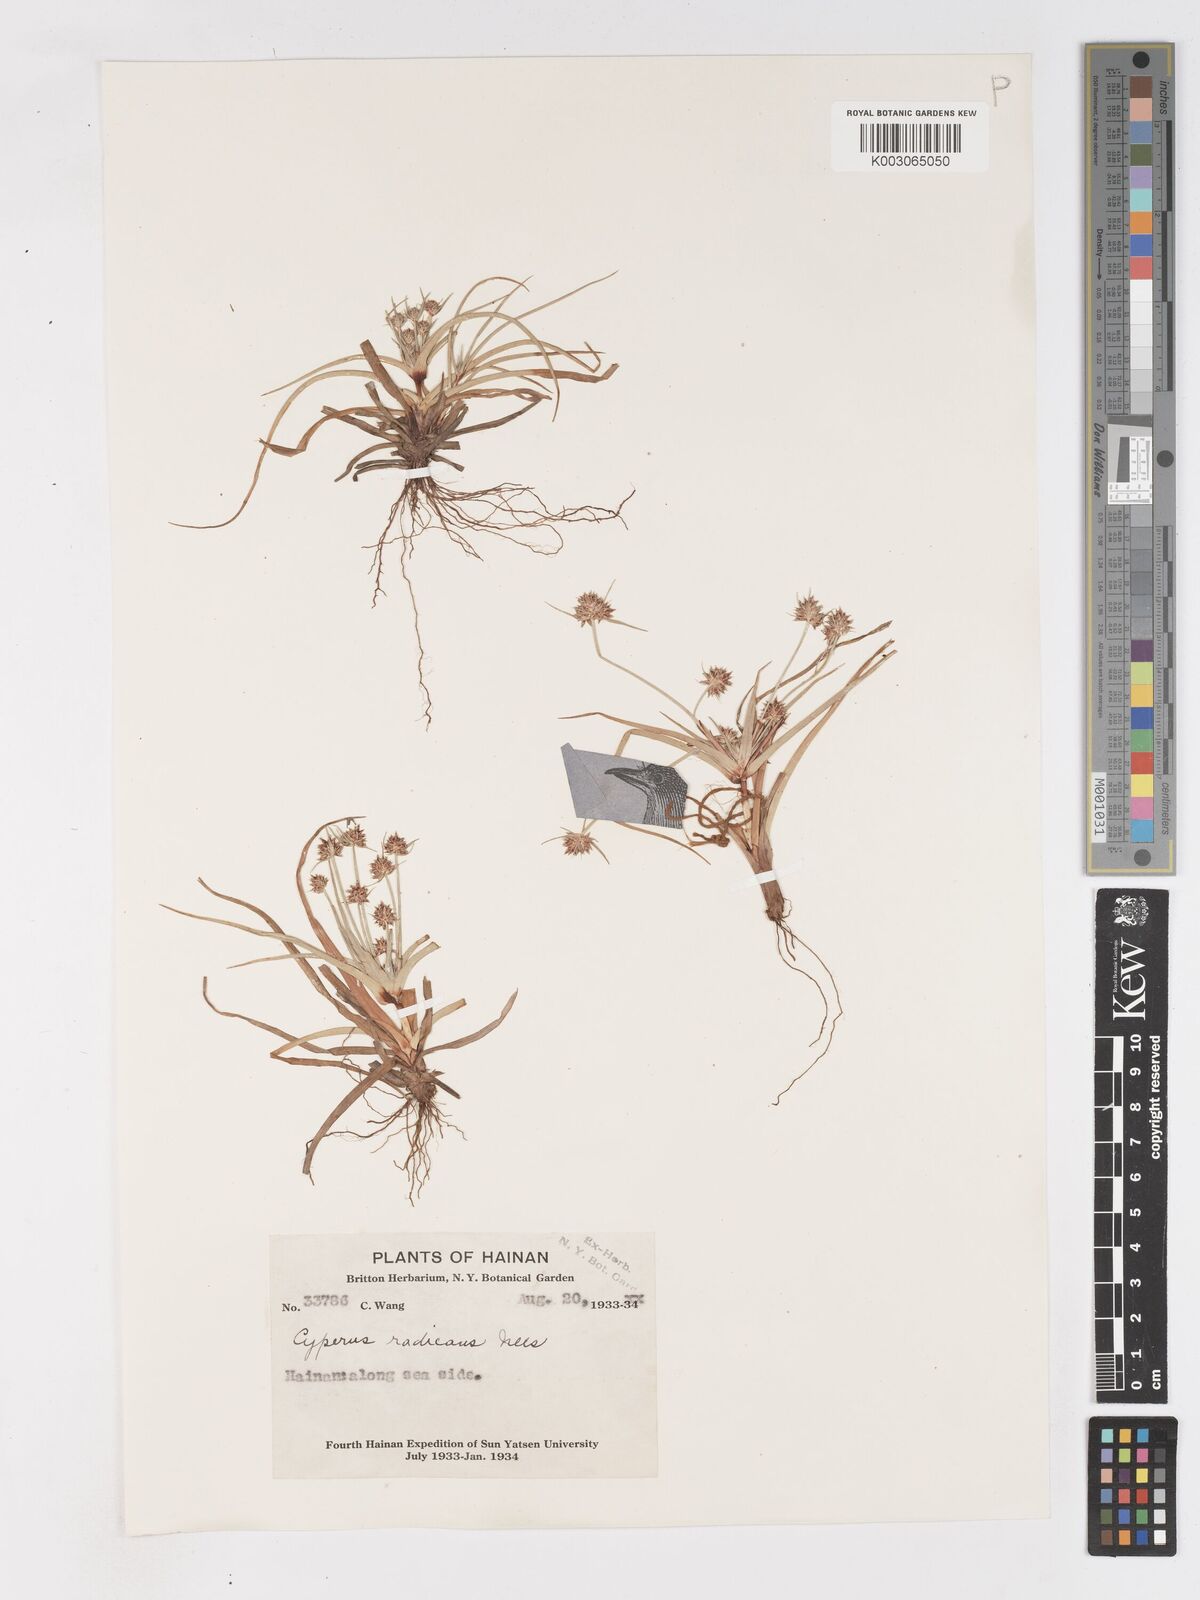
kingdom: Plantae
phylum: Tracheophyta
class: Liliopsida
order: Poales
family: Cyperaceae
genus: Cyperus
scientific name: Cyperus radians
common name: Short-stem cyperus
